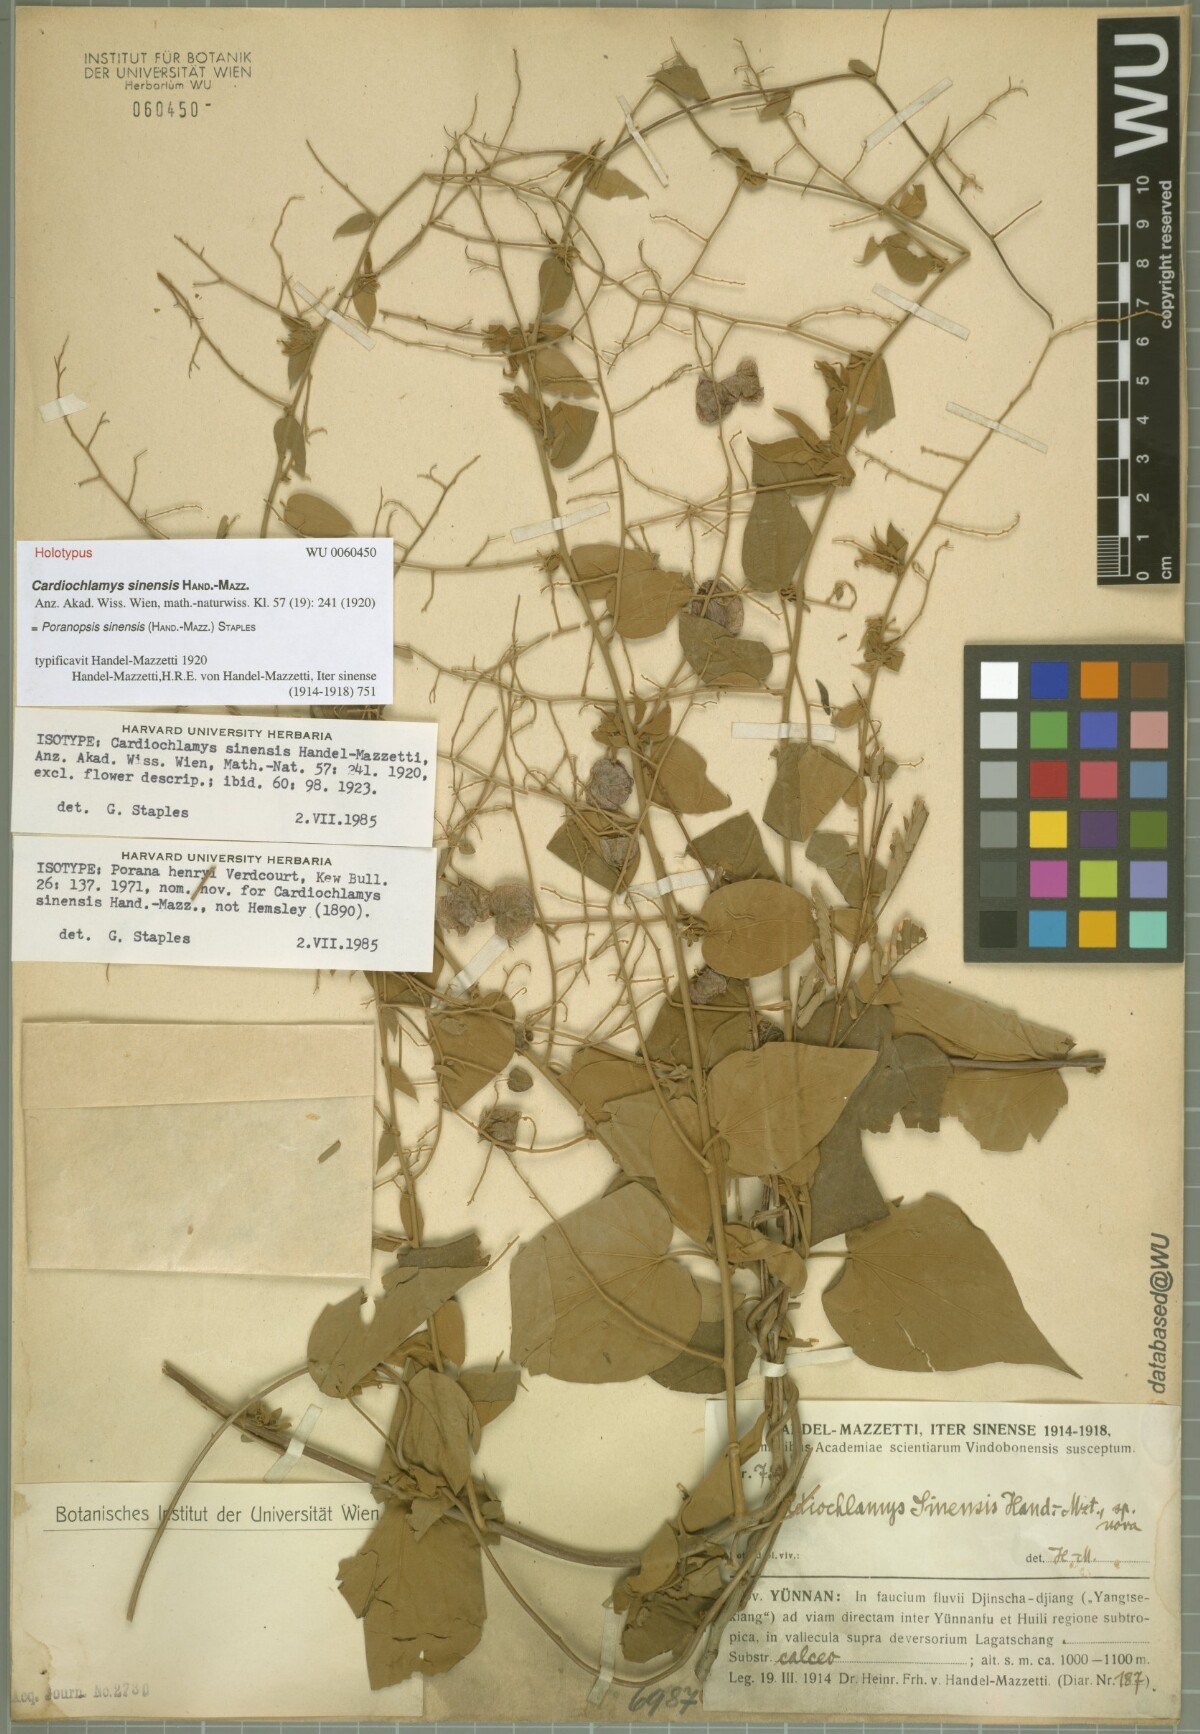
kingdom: Plantae
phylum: Tracheophyta
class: Magnoliopsida
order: Solanales
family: Convolvulaceae
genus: Poranopsis
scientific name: Poranopsis sinensis
